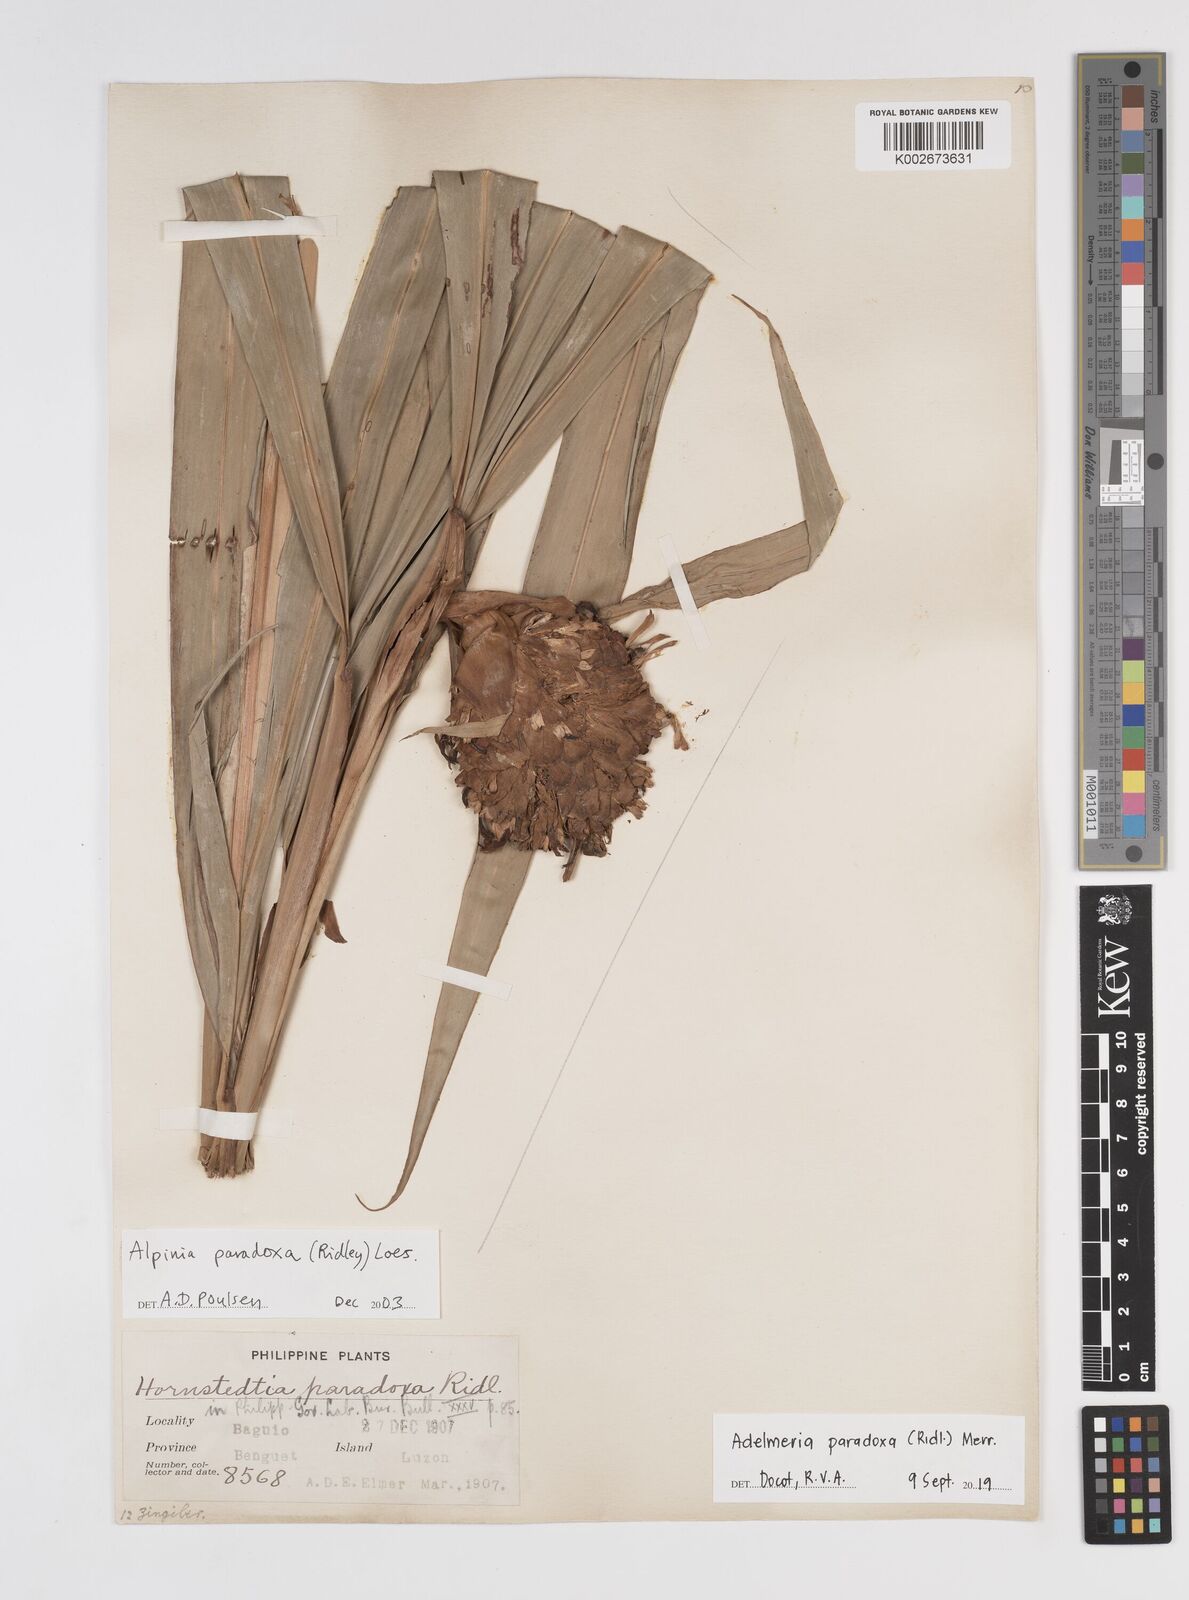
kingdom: Plantae
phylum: Tracheophyta
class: Liliopsida
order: Zingiberales
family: Zingiberaceae
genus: Adelmeria
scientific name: Adelmeria paradoxa
